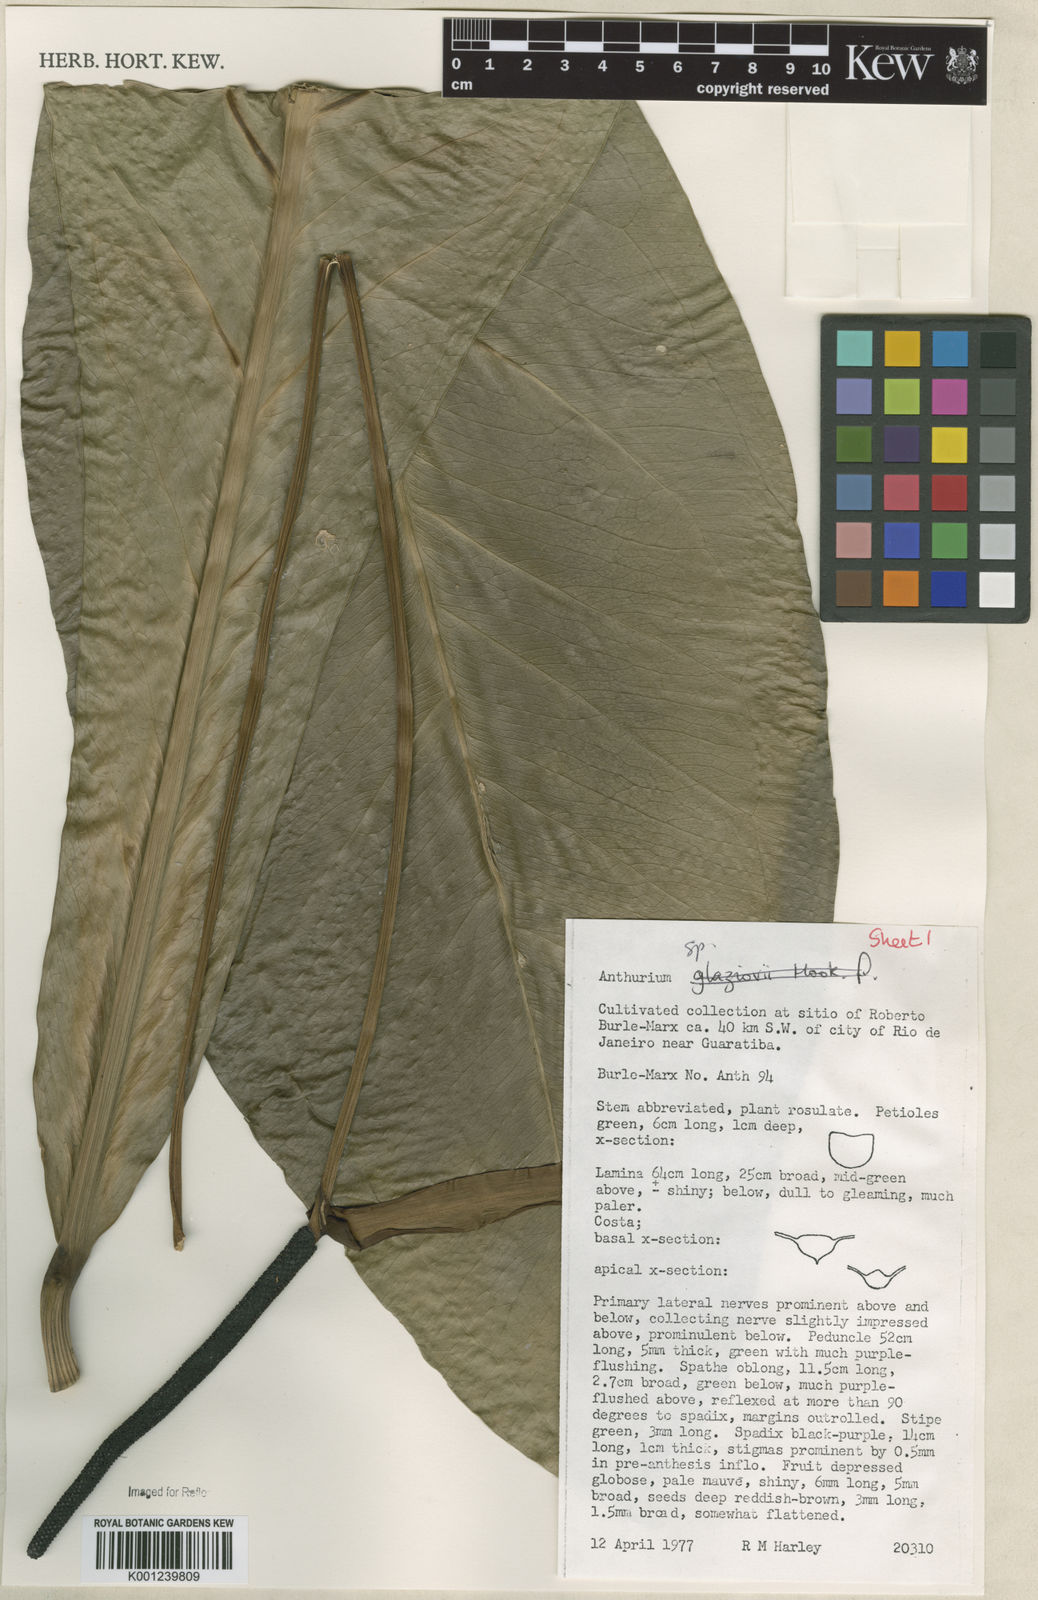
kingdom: Plantae
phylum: Tracheophyta
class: Liliopsida
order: Alismatales
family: Araceae
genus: Anthurium
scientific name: Anthurium
